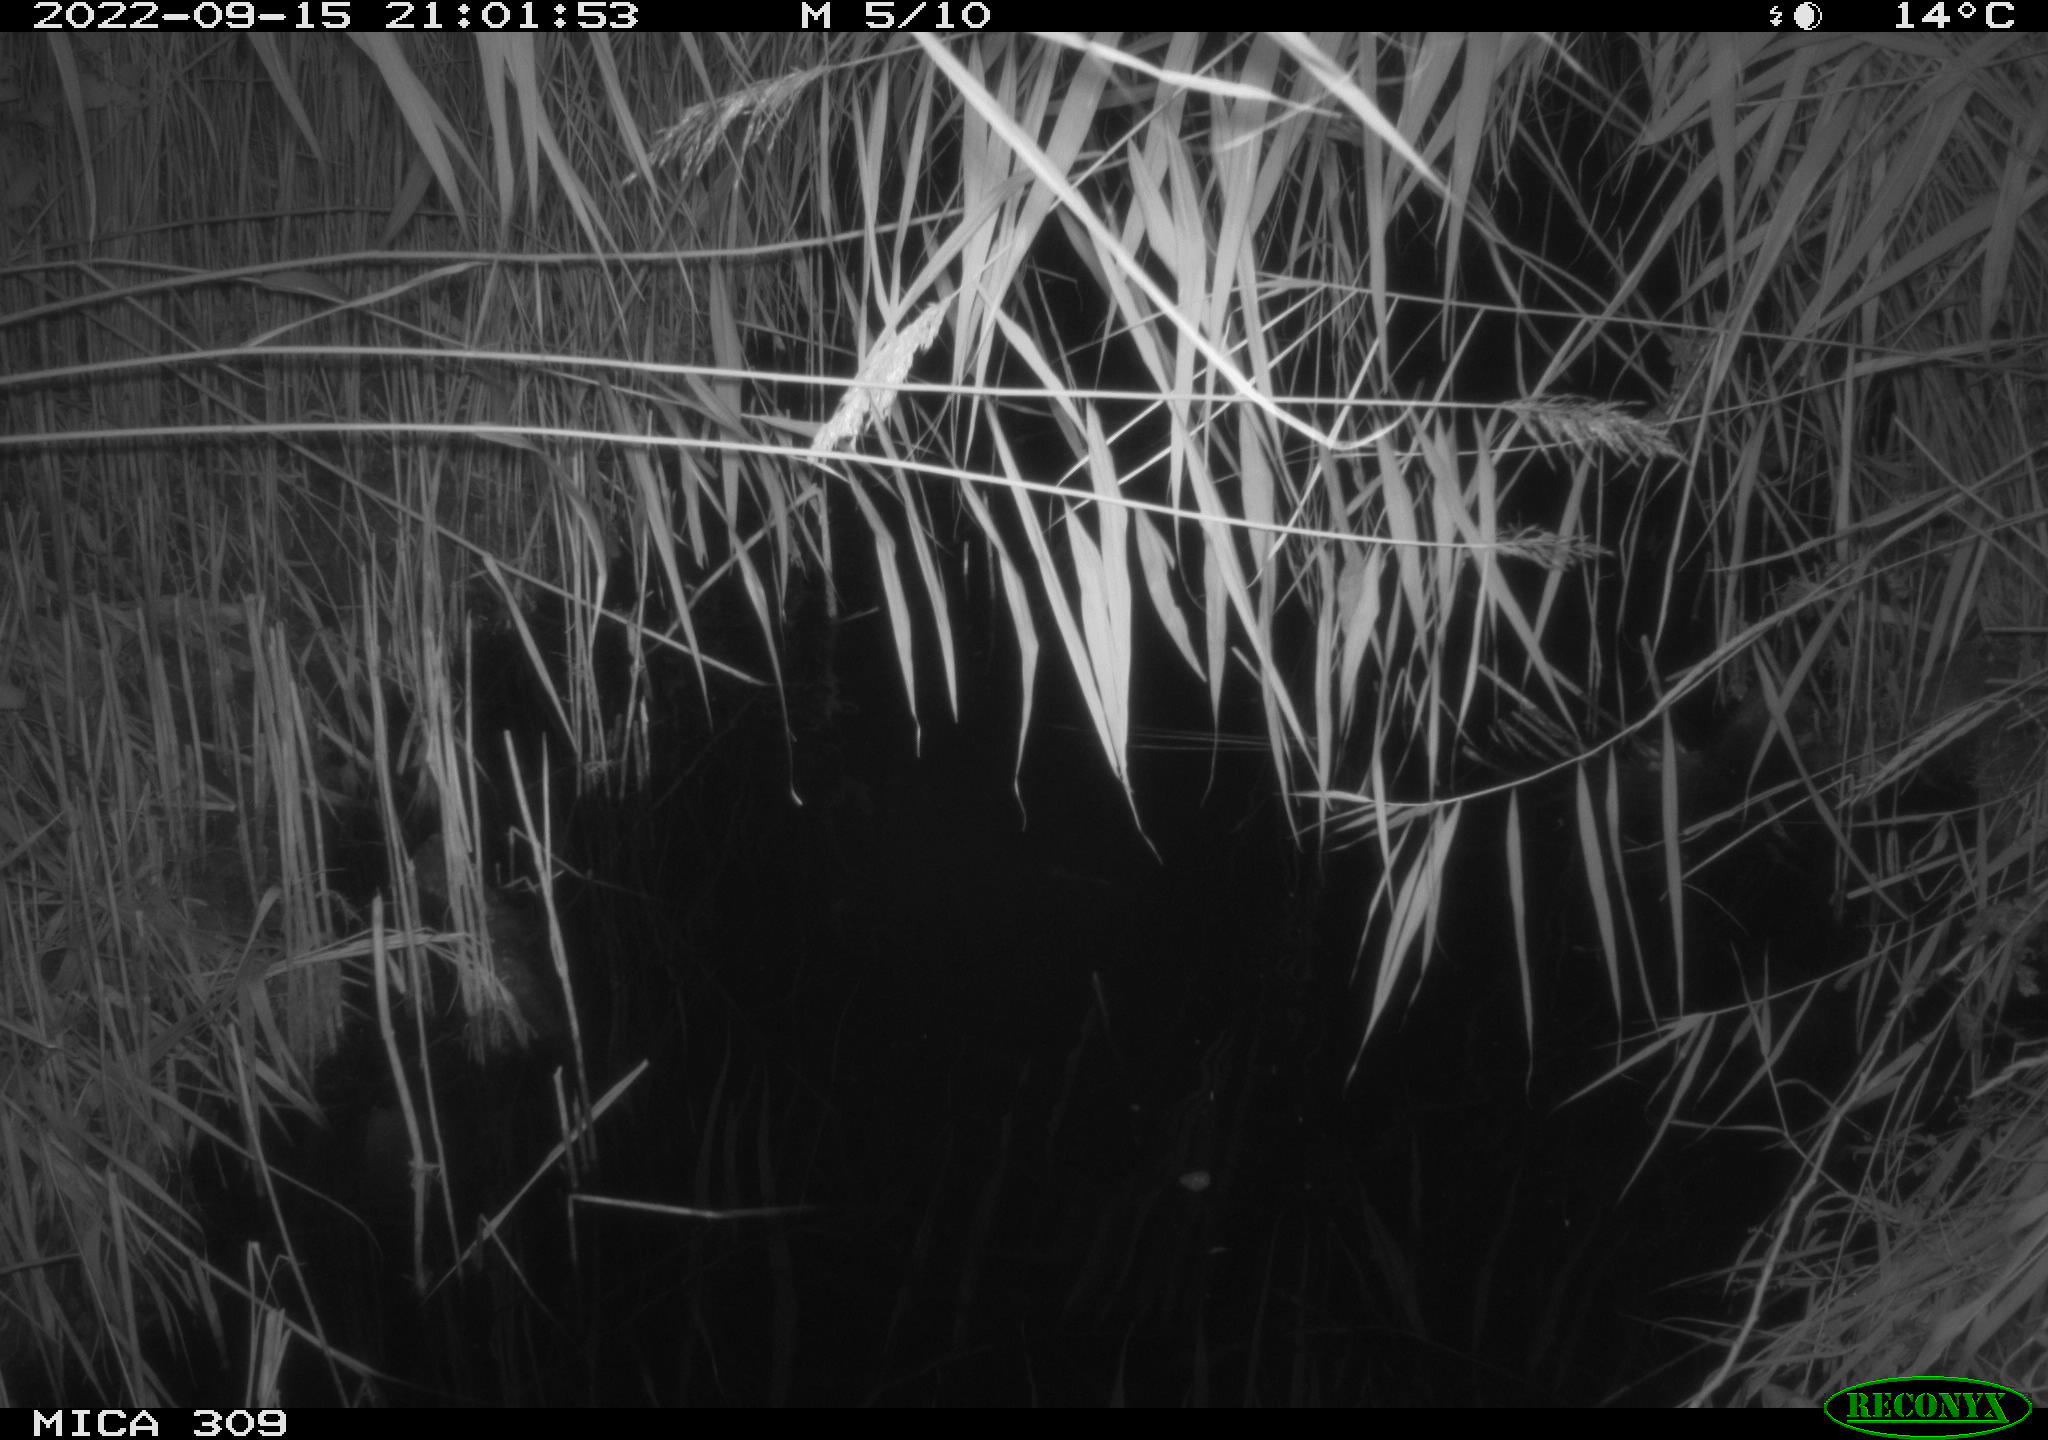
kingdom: Animalia
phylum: Chordata
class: Mammalia
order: Rodentia
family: Muridae
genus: Rattus
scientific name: Rattus norvegicus
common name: Brown rat
